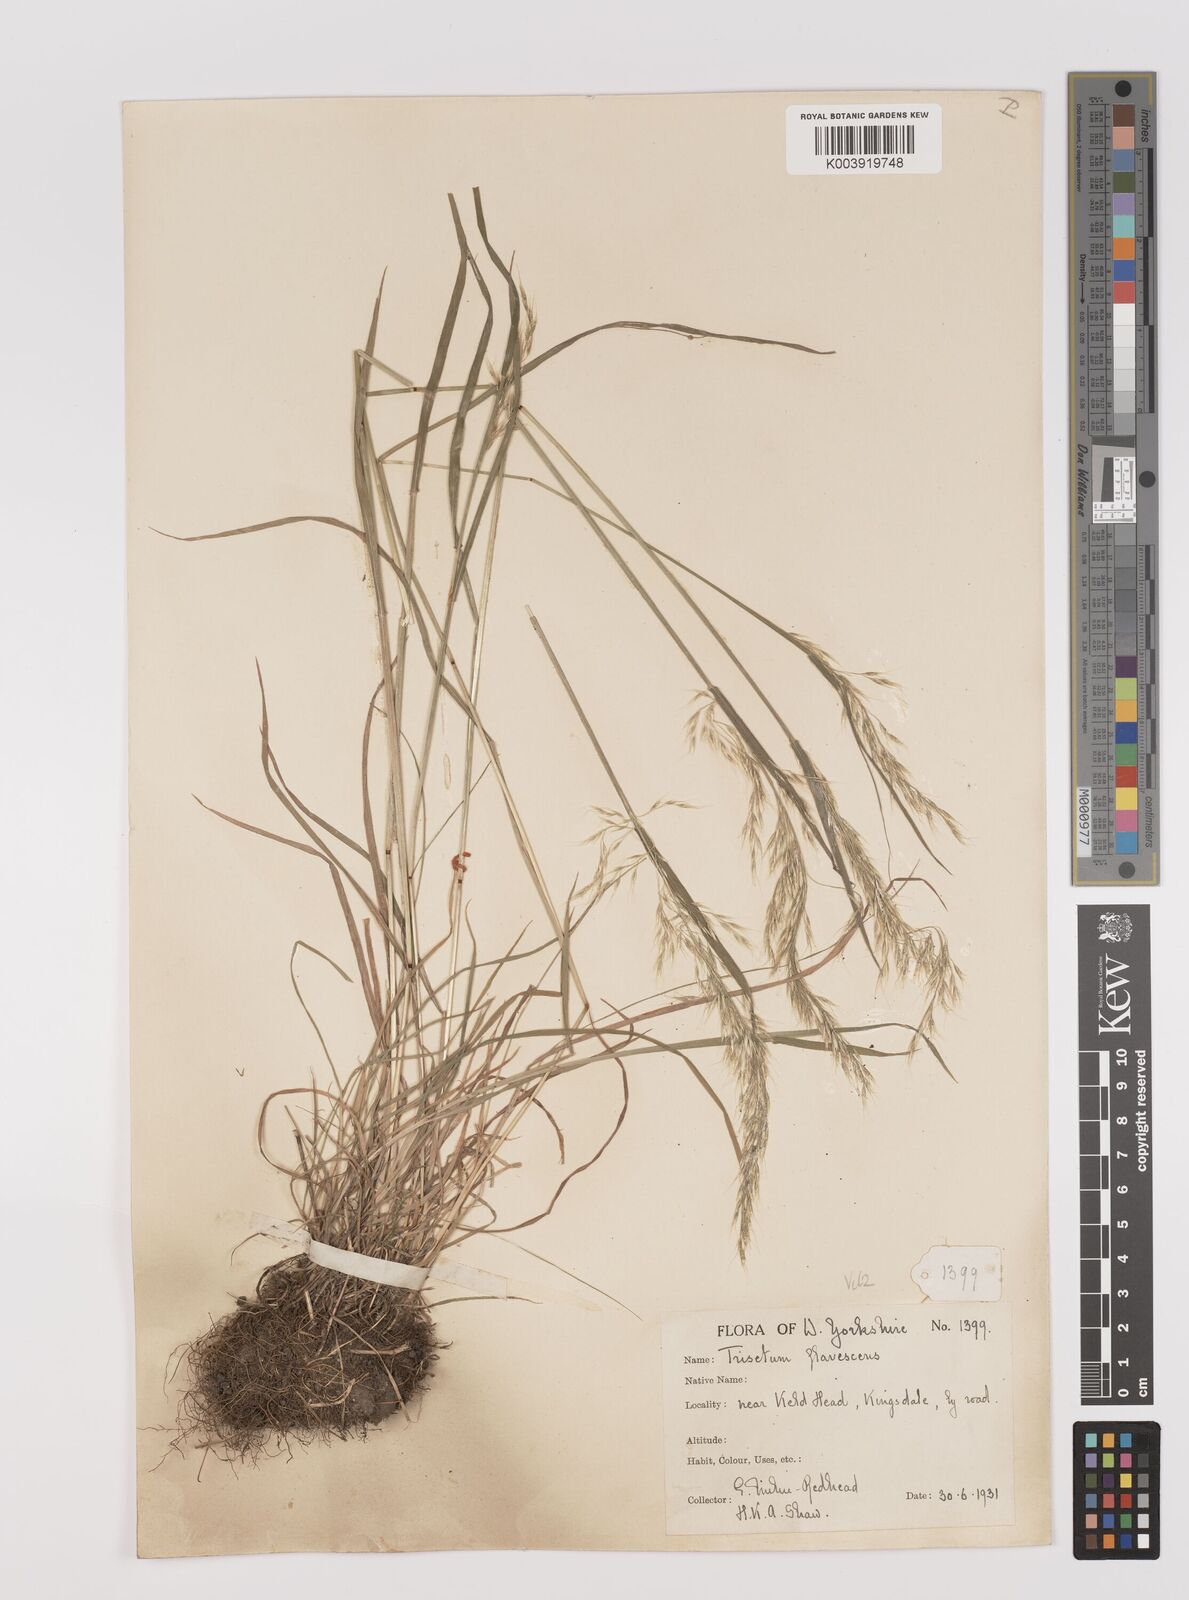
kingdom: Plantae
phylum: Tracheophyta
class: Liliopsida
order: Poales
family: Poaceae
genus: Trisetum
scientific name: Trisetum flavescens
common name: Yellow oat-grass
